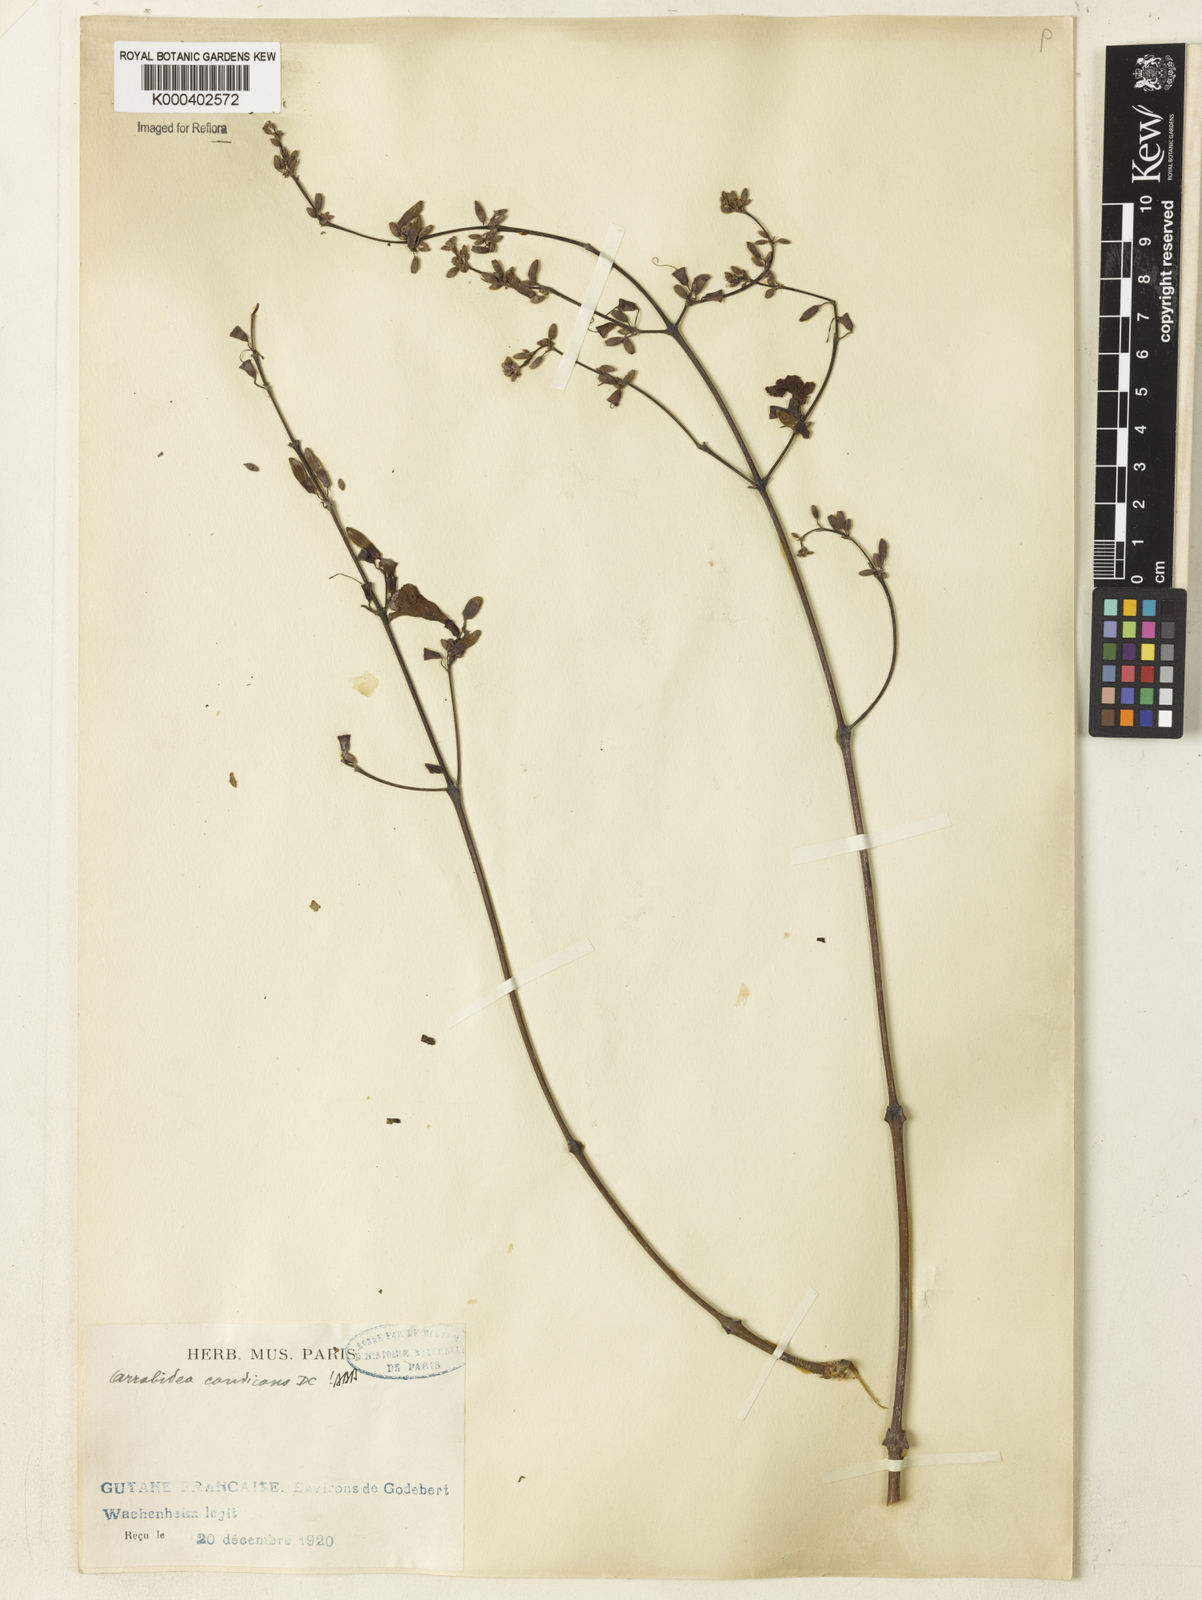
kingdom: Plantae
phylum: Tracheophyta
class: Magnoliopsida
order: Lamiales
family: Bignoniaceae
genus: Fridericia
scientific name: Fridericia candicans
